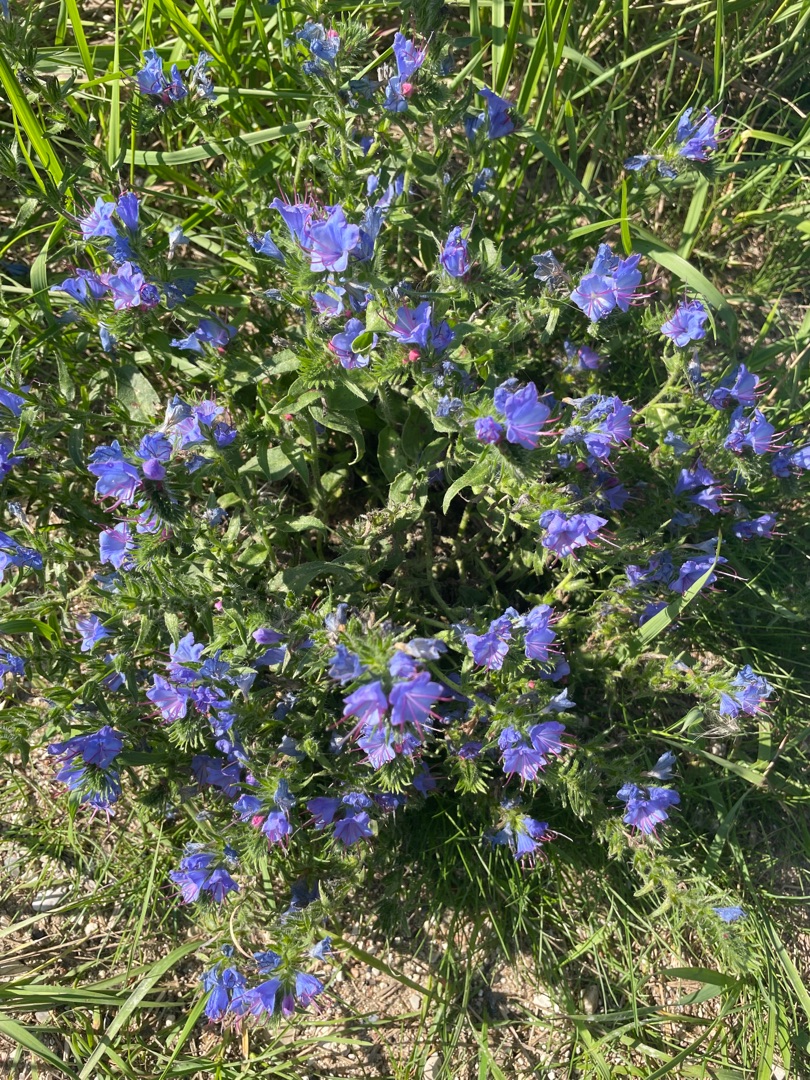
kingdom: Plantae
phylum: Tracheophyta
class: Magnoliopsida
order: Boraginales
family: Boraginaceae
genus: Echium
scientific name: Echium vulgare
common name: Slangehoved
